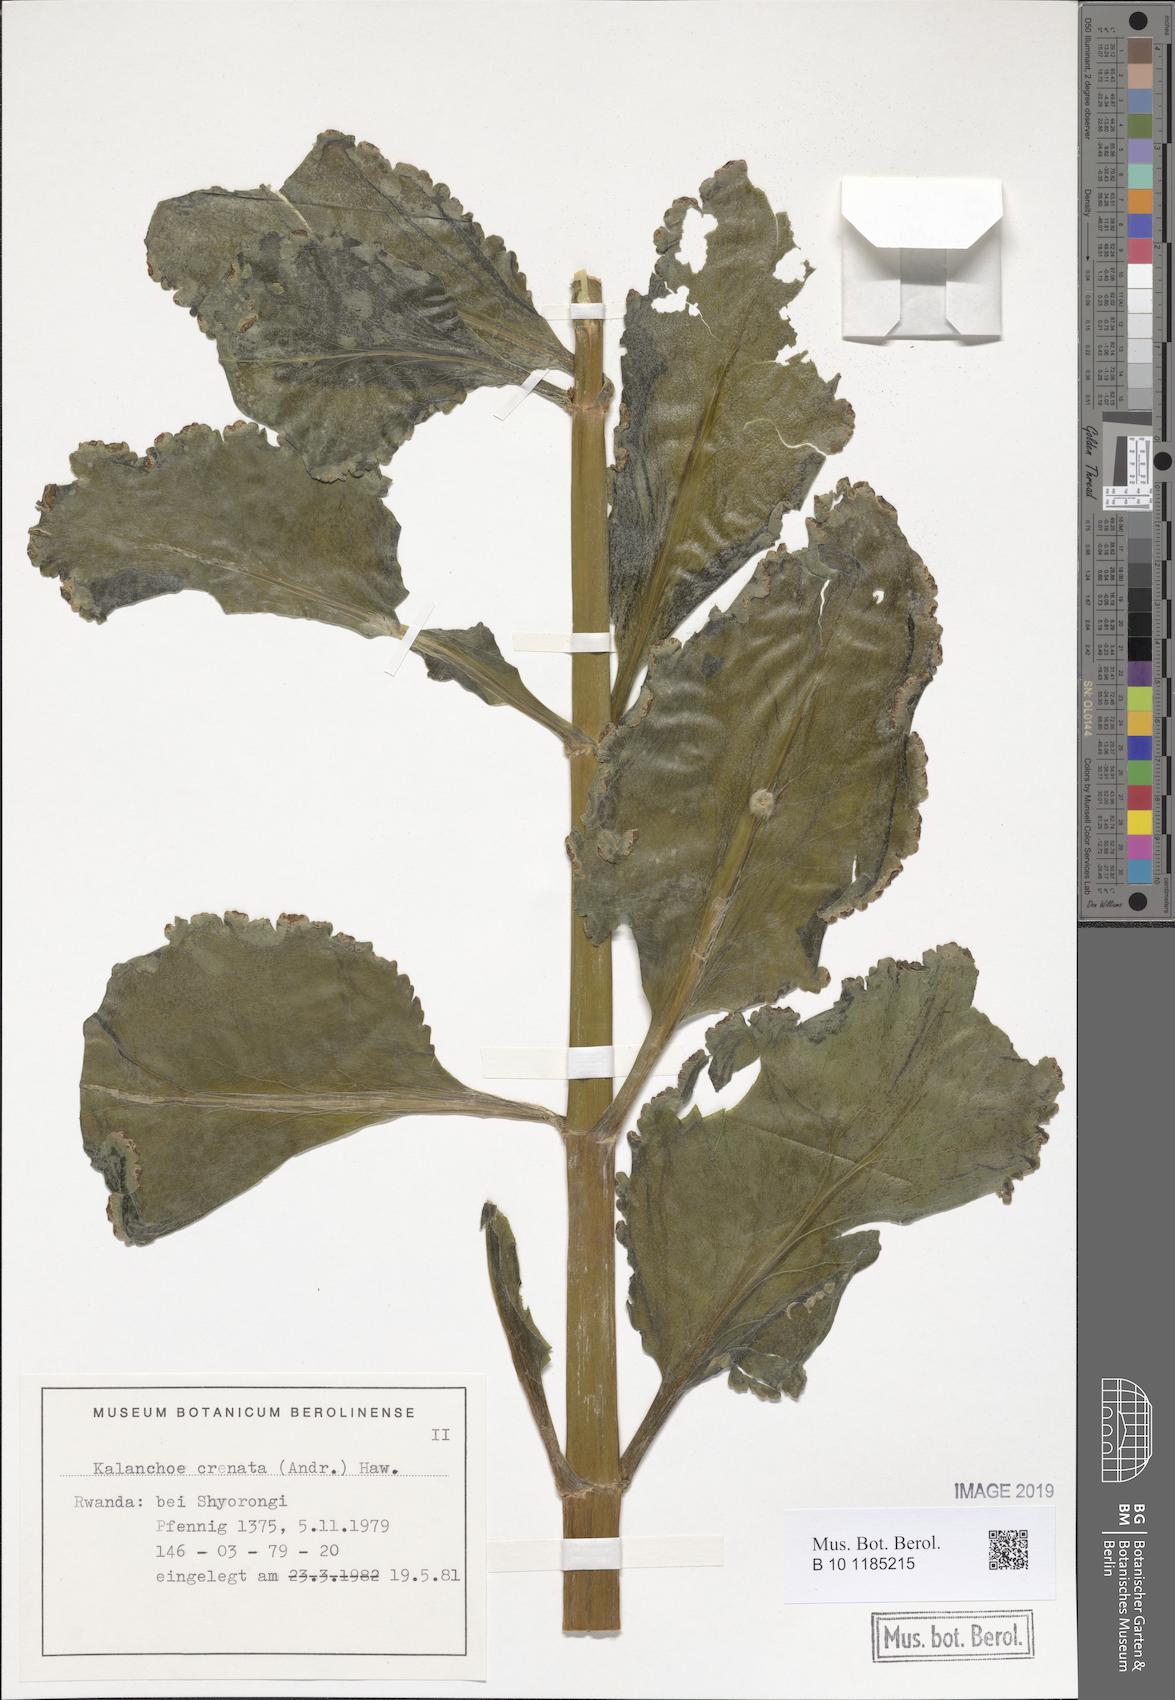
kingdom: Plantae
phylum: Tracheophyta
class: Magnoliopsida
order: Saxifragales
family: Crassulaceae
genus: Kalanchoe
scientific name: Kalanchoe crenata
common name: Neverdie
